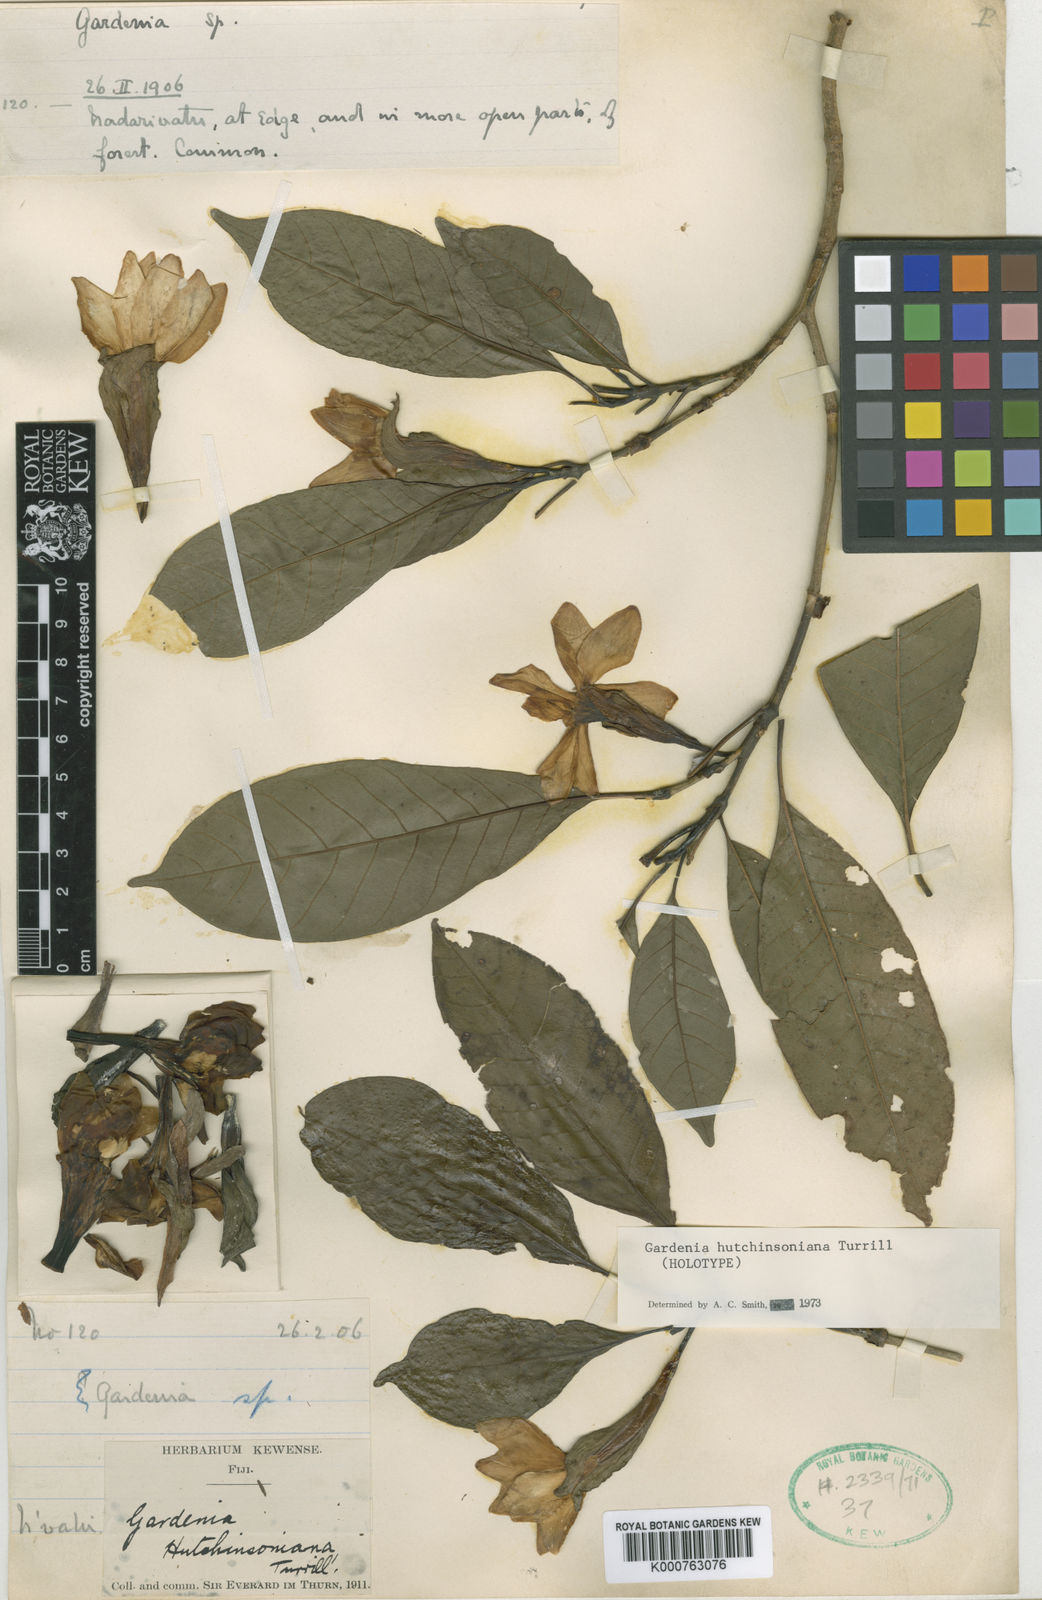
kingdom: Plantae
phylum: Tracheophyta
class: Magnoliopsida
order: Gentianales
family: Rubiaceae
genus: Gardenia
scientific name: Gardenia hutchinsoniana
